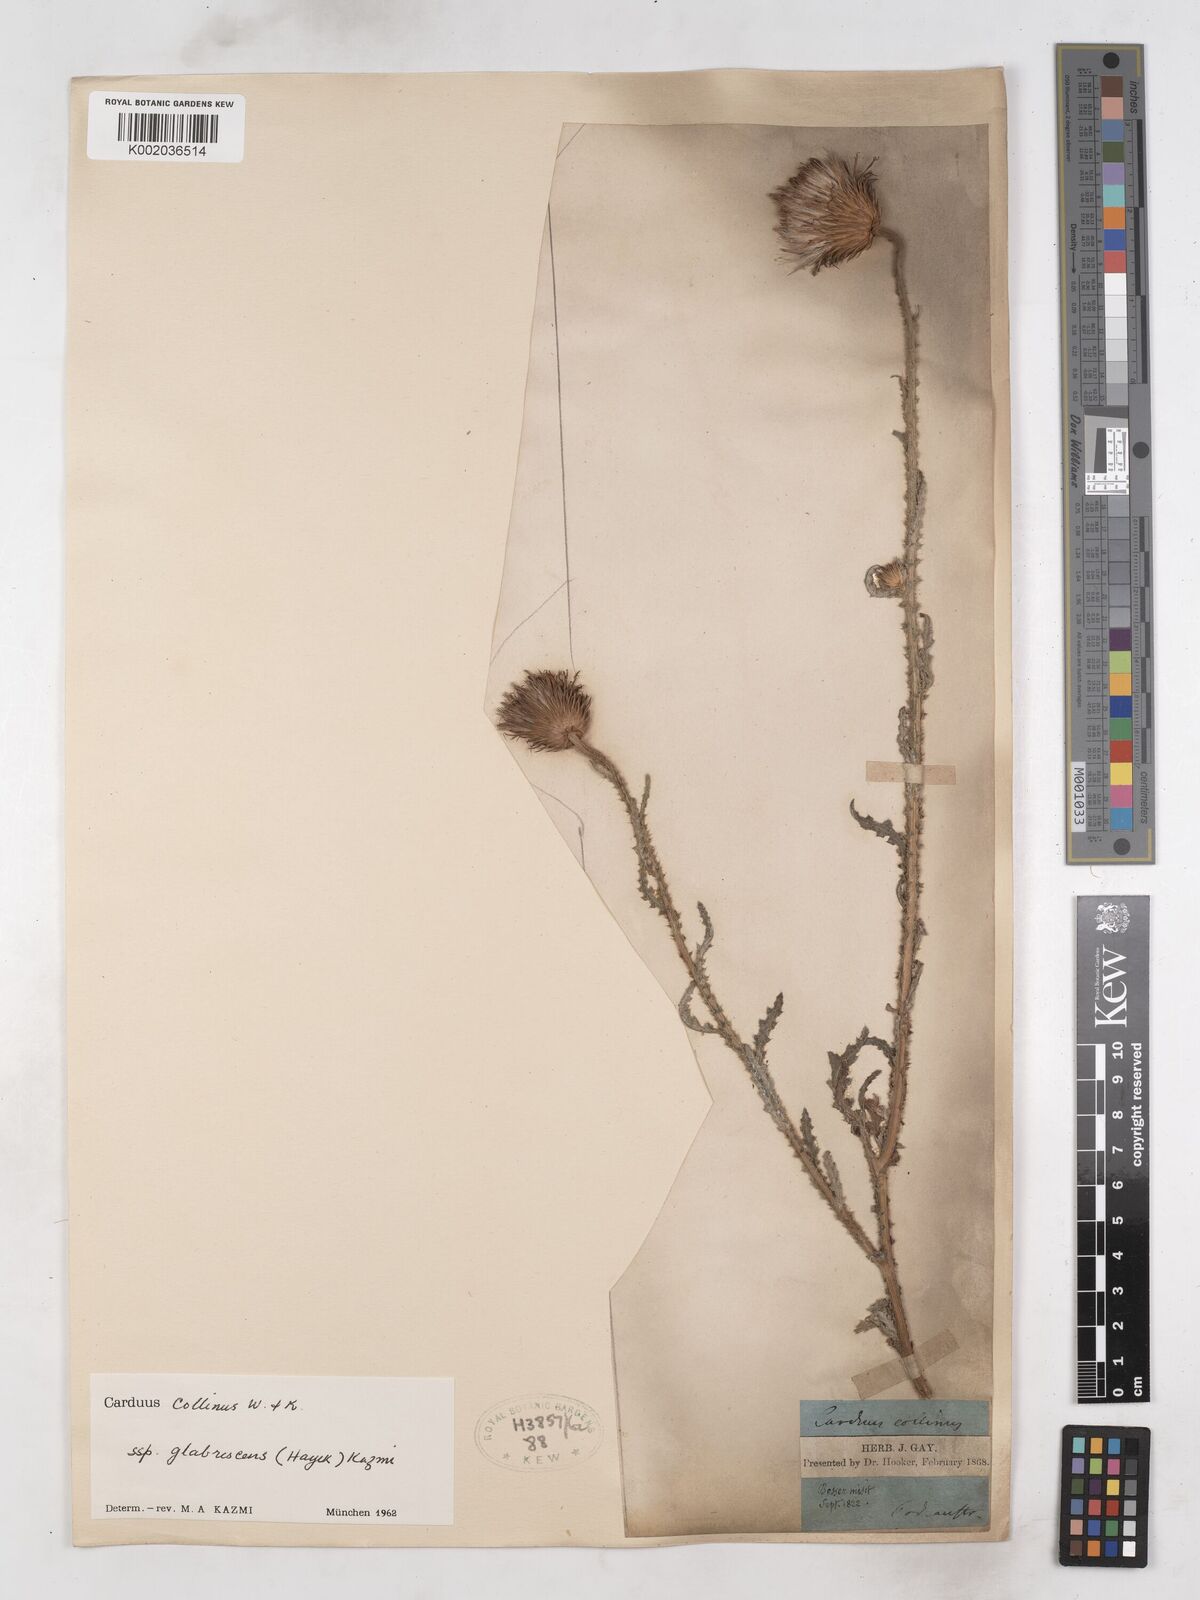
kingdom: Plantae
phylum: Tracheophyta
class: Magnoliopsida
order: Asterales
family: Asteraceae
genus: Carduus
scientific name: Carduus collinus
